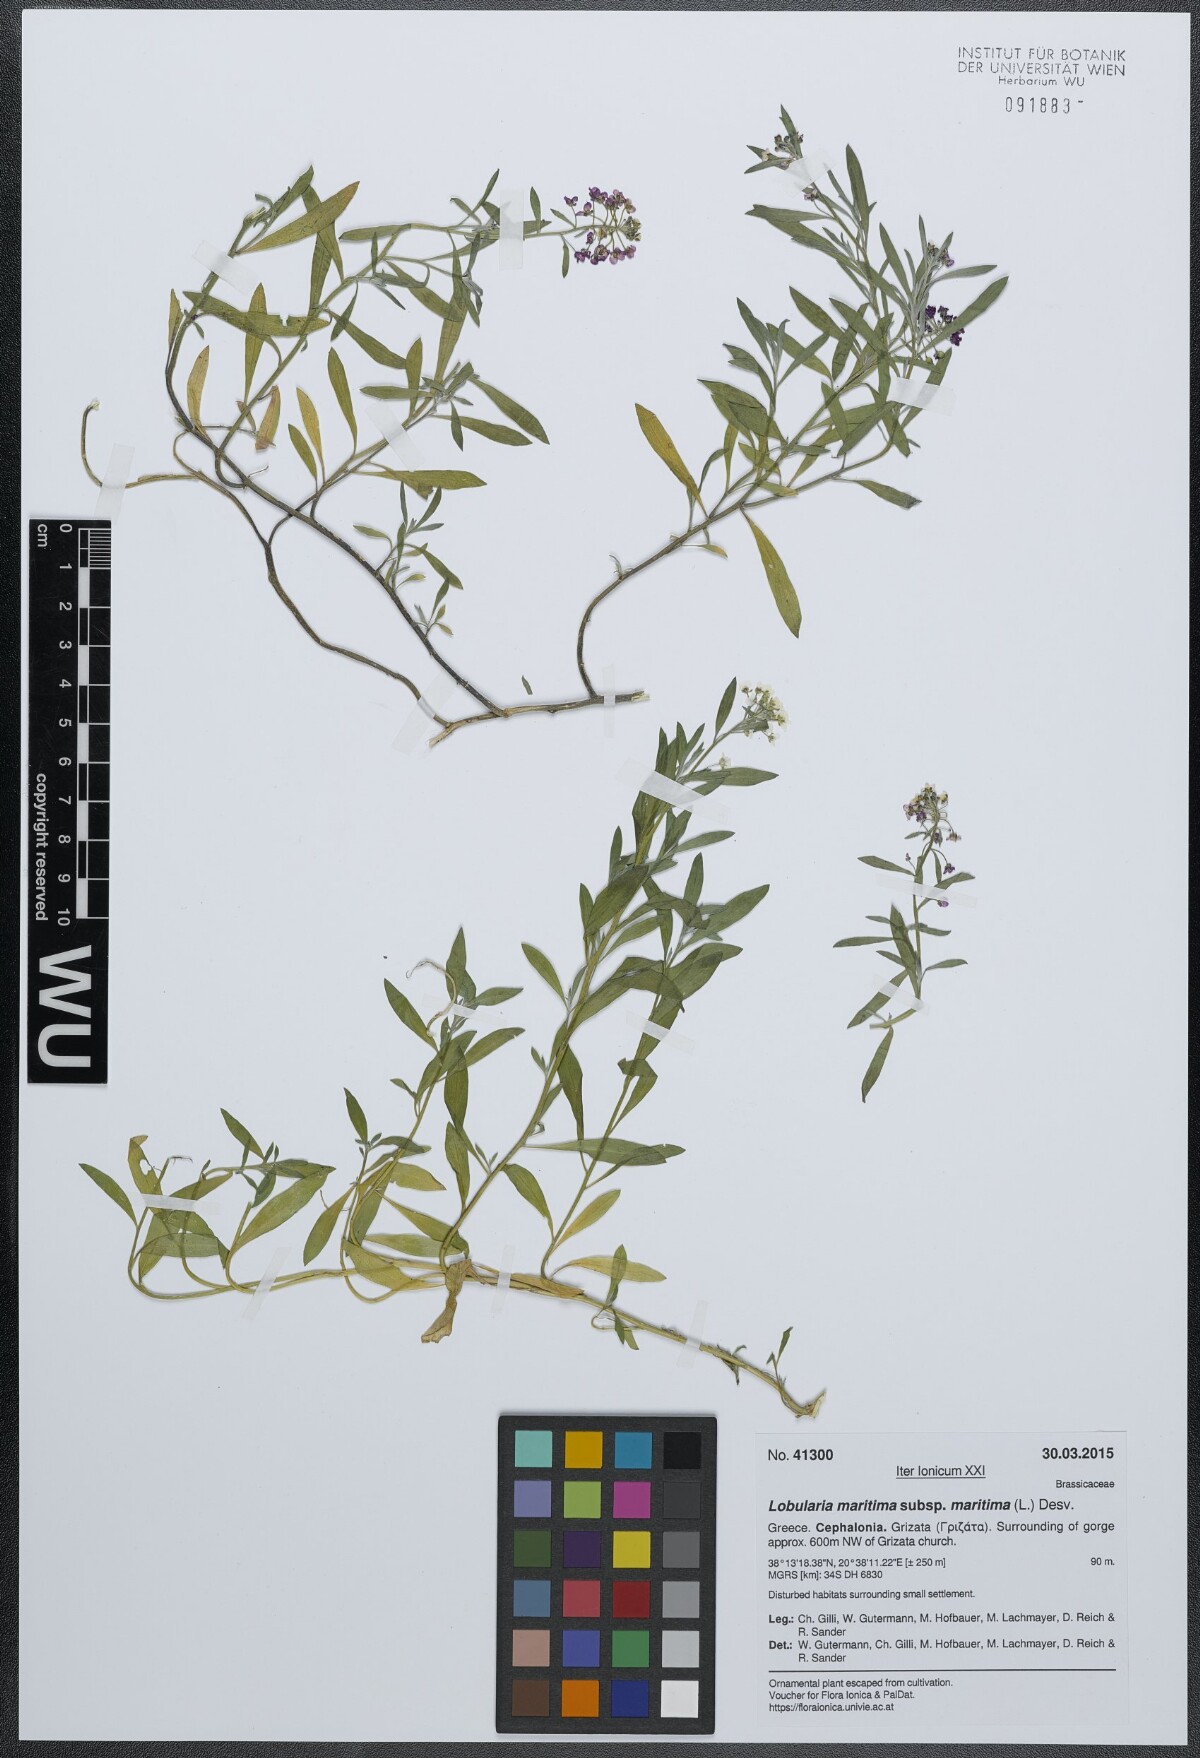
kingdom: Plantae
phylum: Tracheophyta
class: Magnoliopsida
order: Brassicales
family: Brassicaceae
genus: Lobularia
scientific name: Lobularia maritima
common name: Sweet alison
